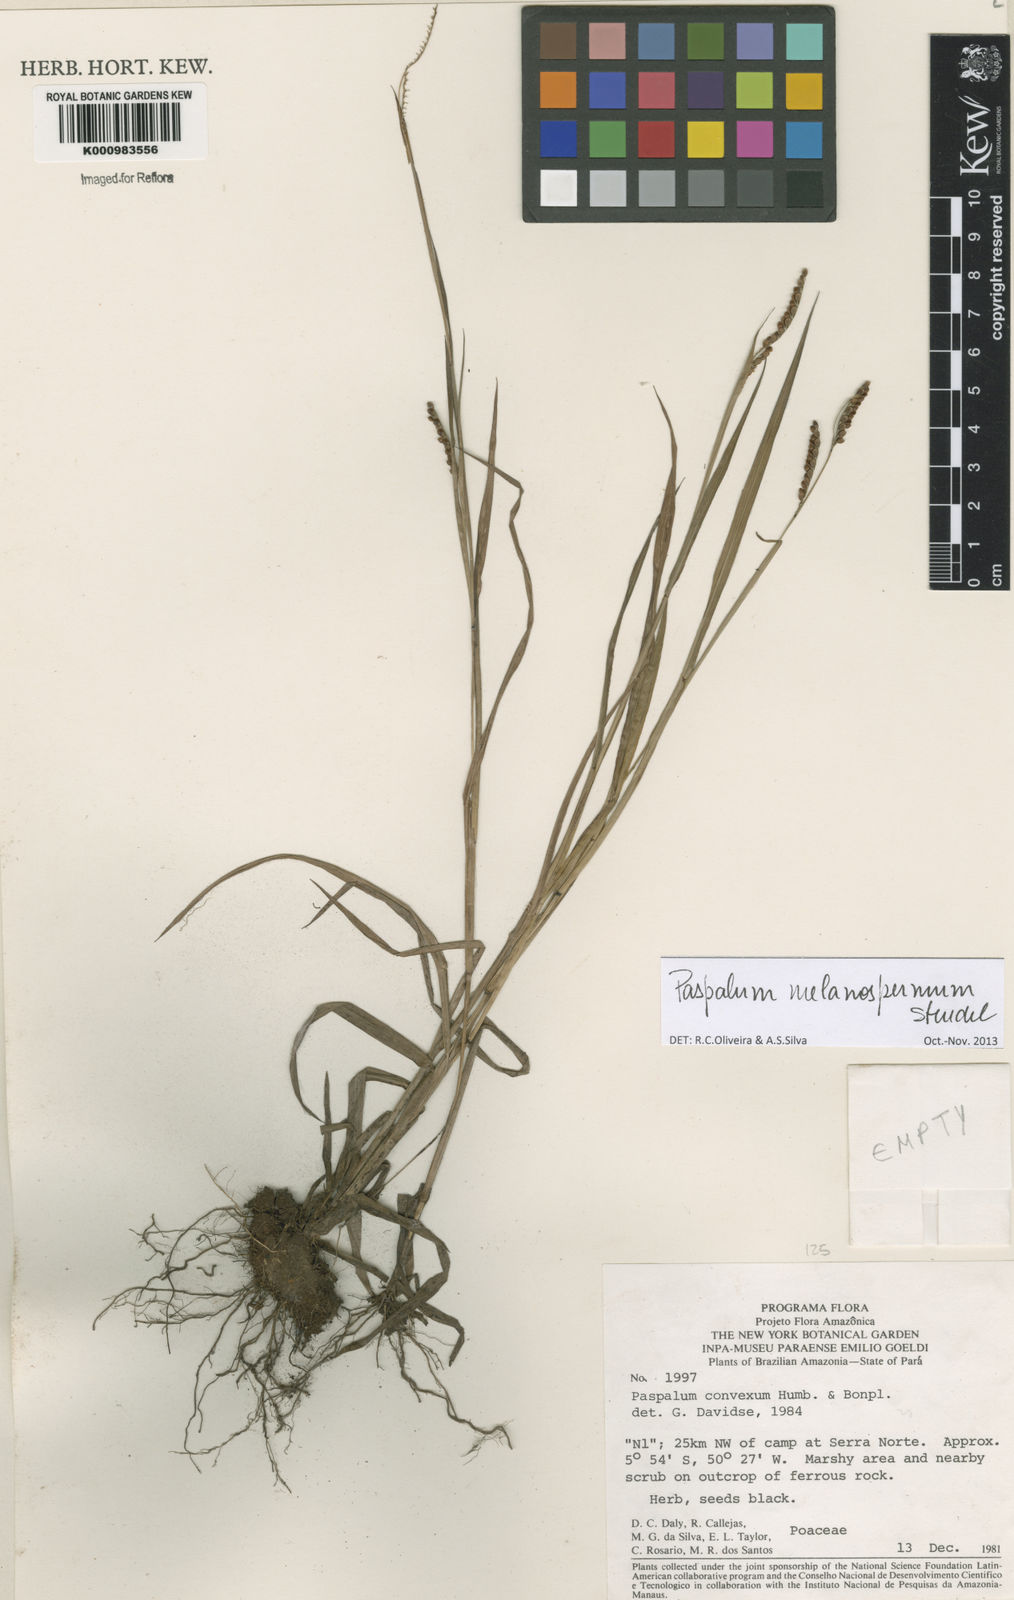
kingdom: Plantae
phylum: Tracheophyta
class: Liliopsida
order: Poales
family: Poaceae
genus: Paspalum
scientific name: Paspalum melanospermum
